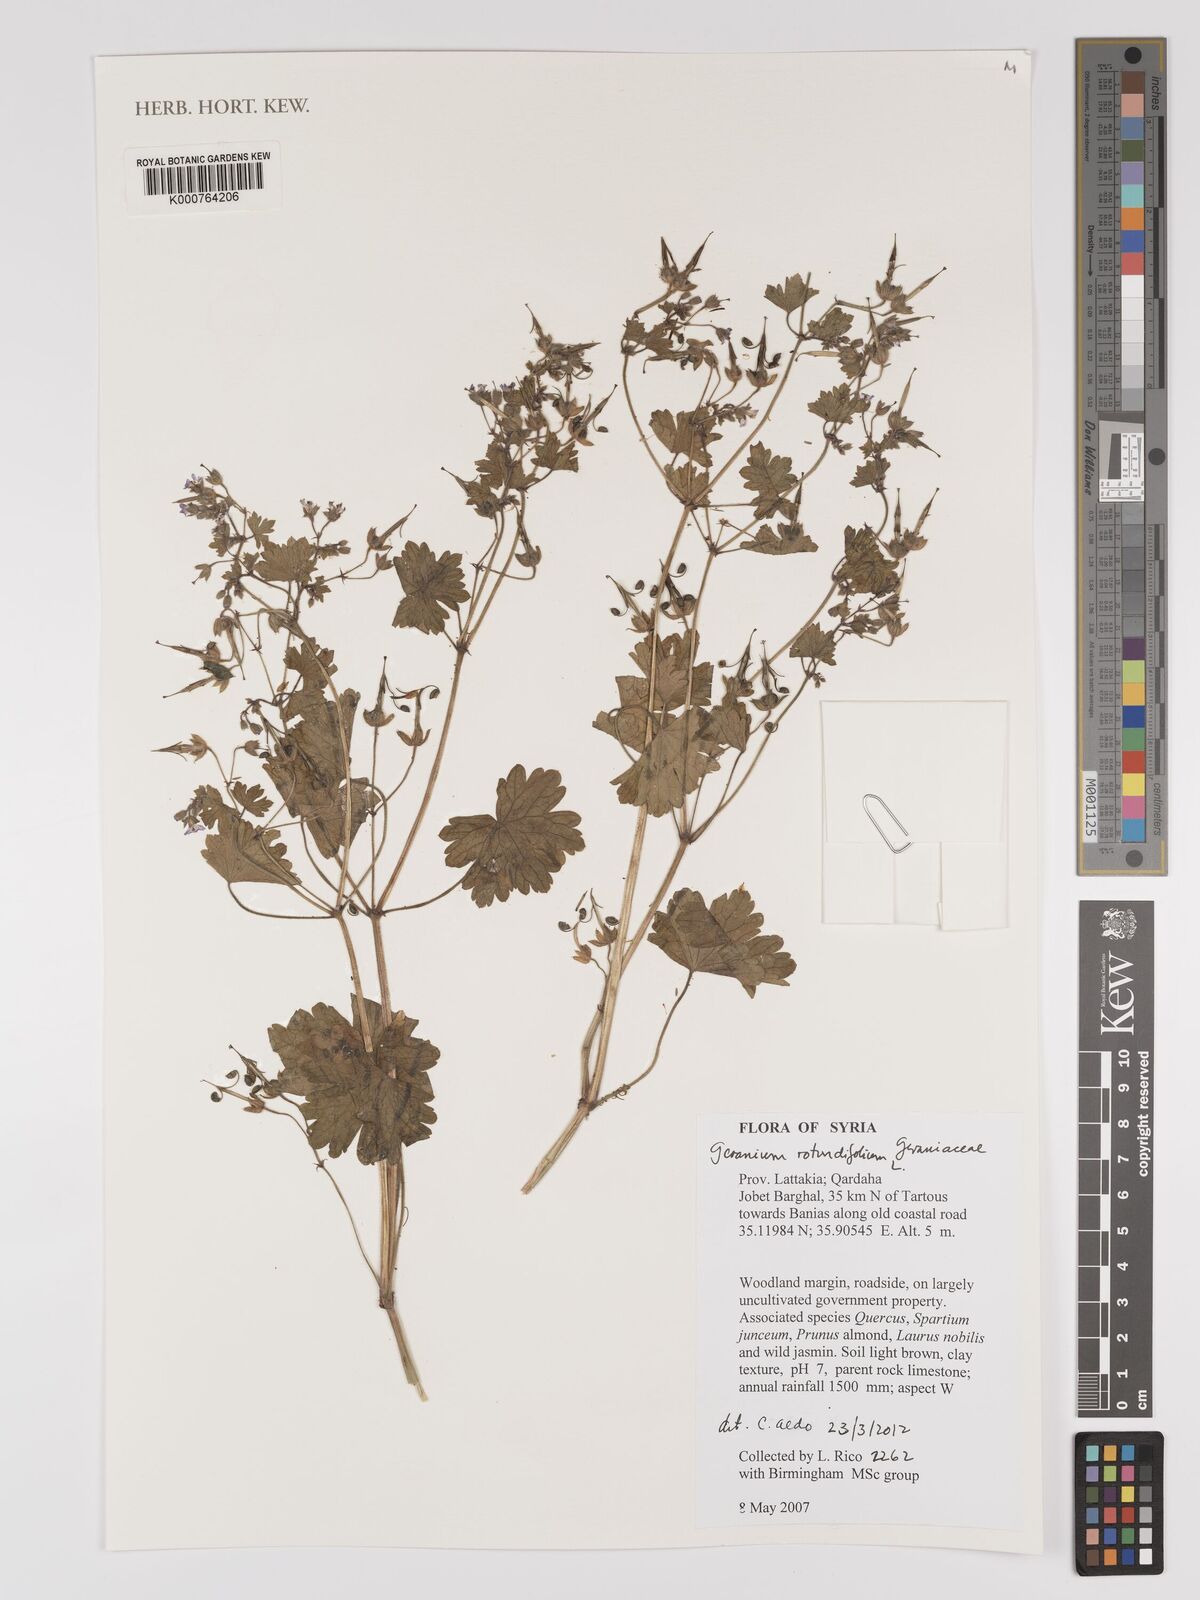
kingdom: Plantae
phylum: Tracheophyta
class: Magnoliopsida
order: Geraniales
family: Geraniaceae
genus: Geranium
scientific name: Geranium rotundifolium
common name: Round-leaved crane's-bill
